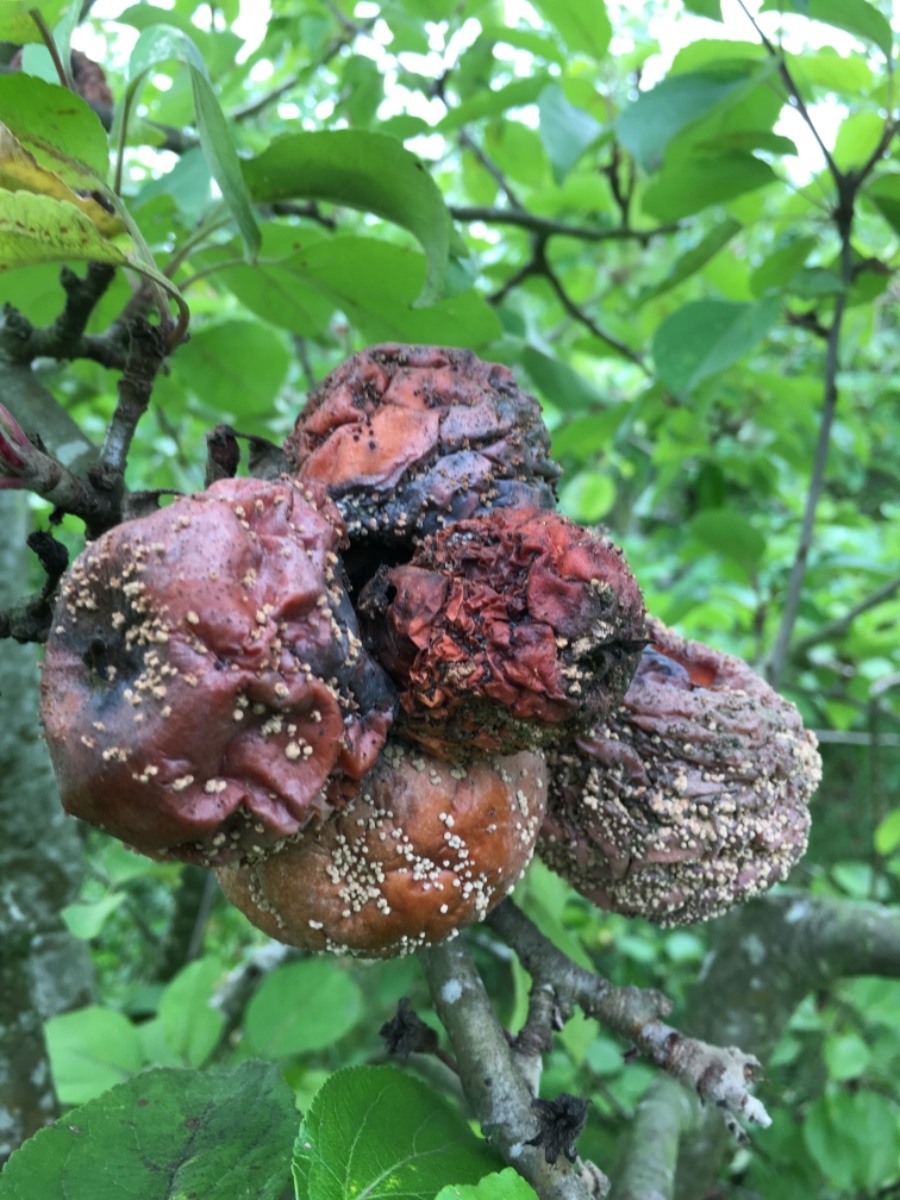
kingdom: Fungi
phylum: Ascomycota
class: Leotiomycetes
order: Helotiales
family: Sclerotiniaceae
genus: Monilinia
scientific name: Monilinia fructigena
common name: æble-knoldskive
